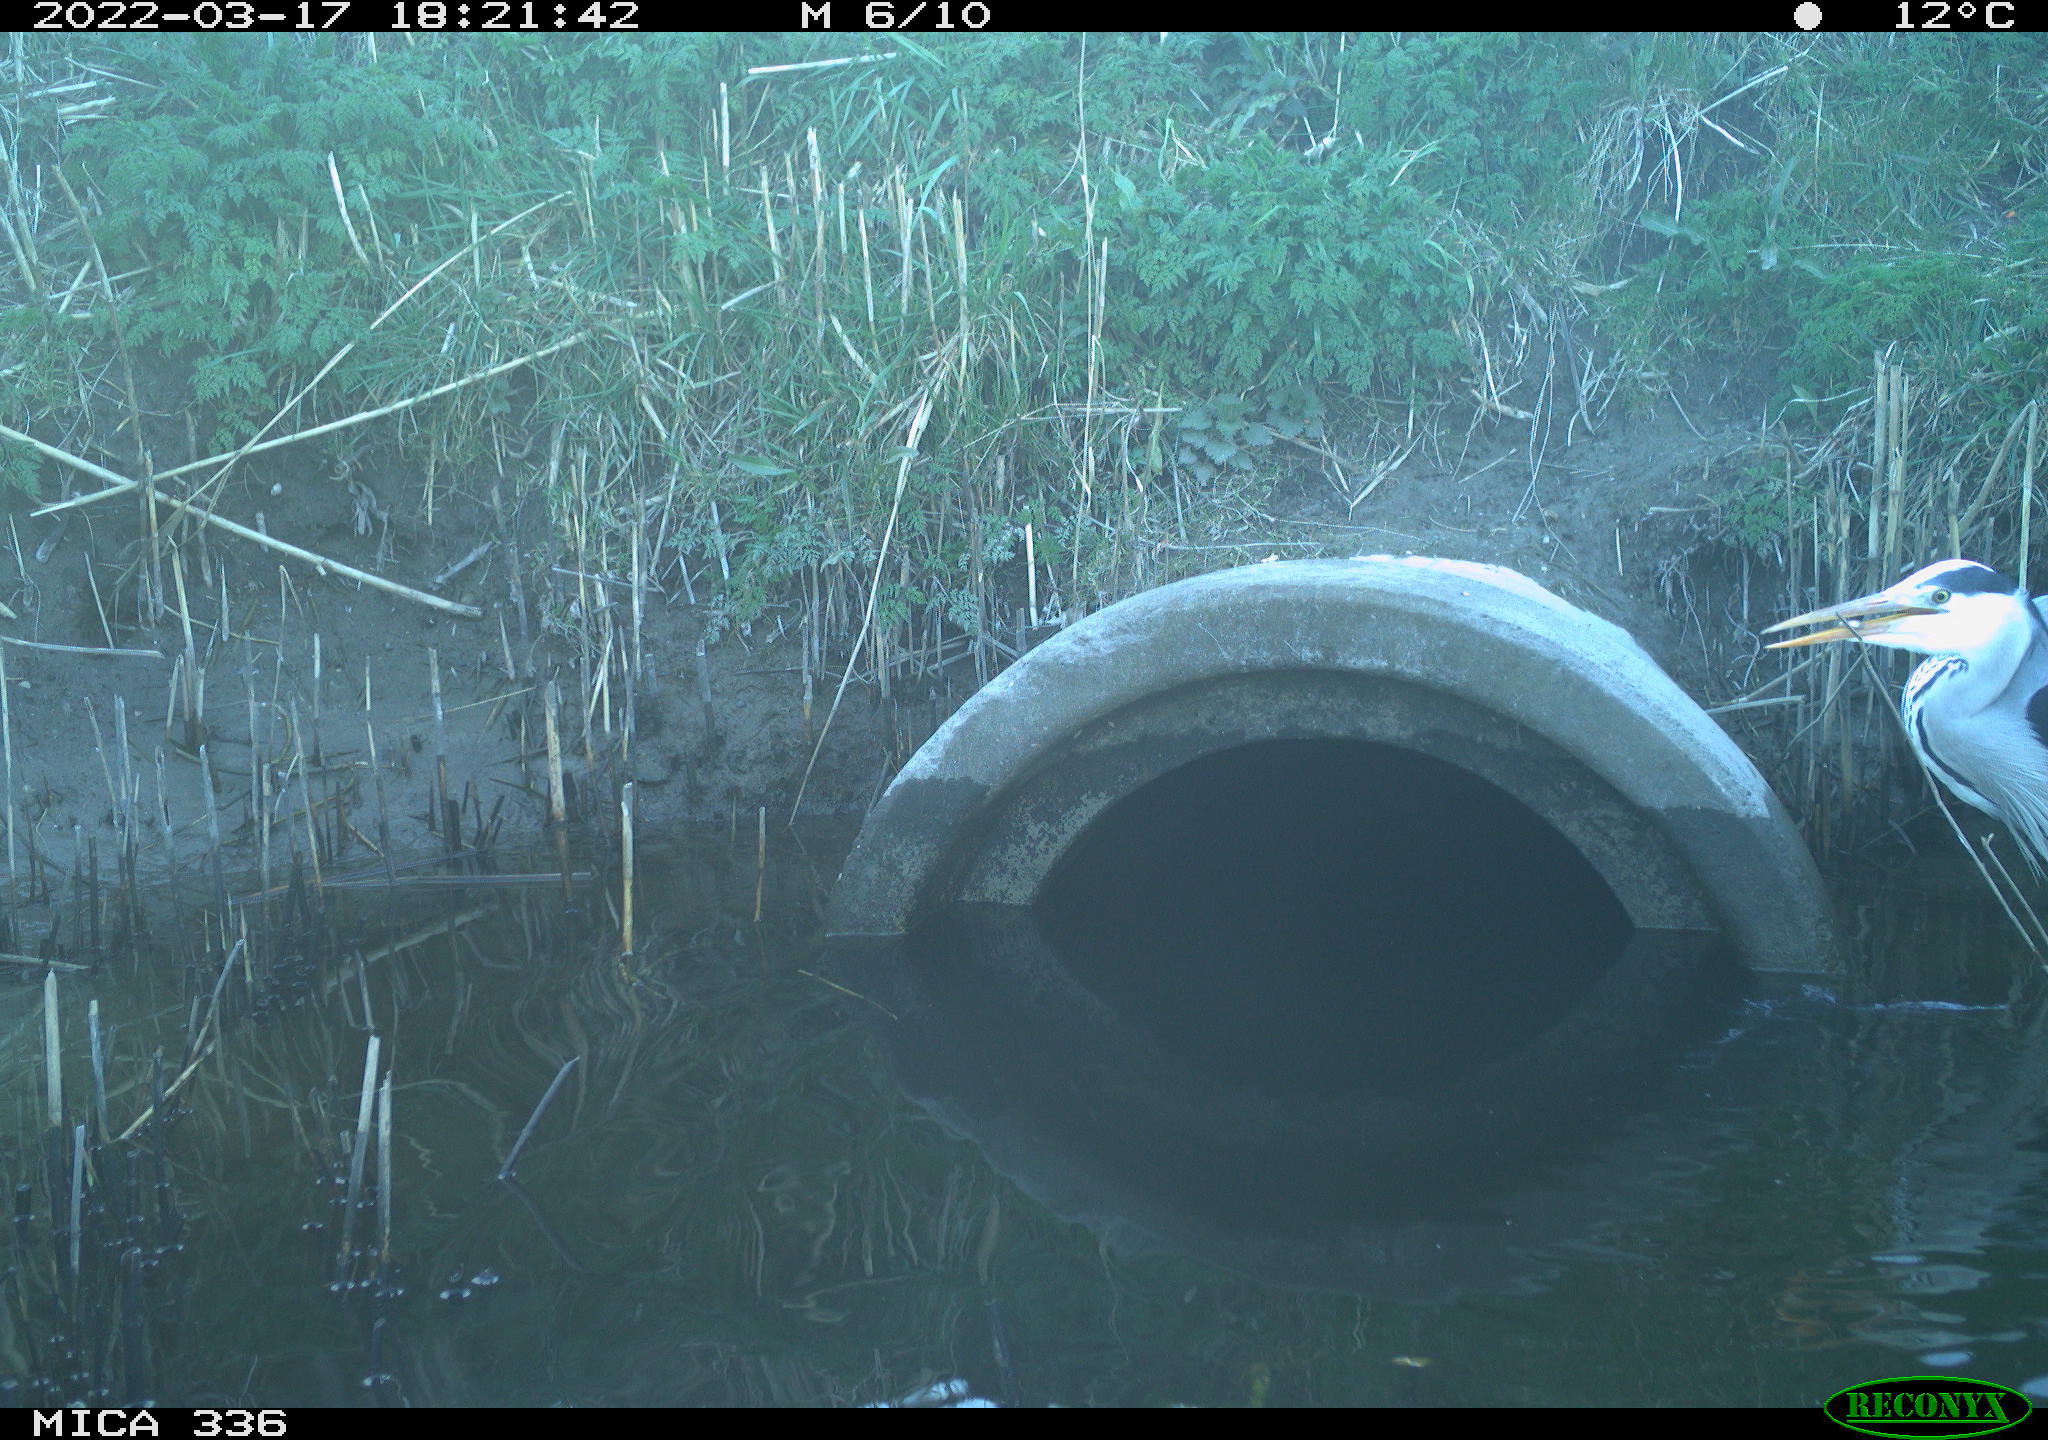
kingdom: Animalia
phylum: Chordata
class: Aves
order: Pelecaniformes
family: Ardeidae
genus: Ardea
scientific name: Ardea cinerea
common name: Grey heron
